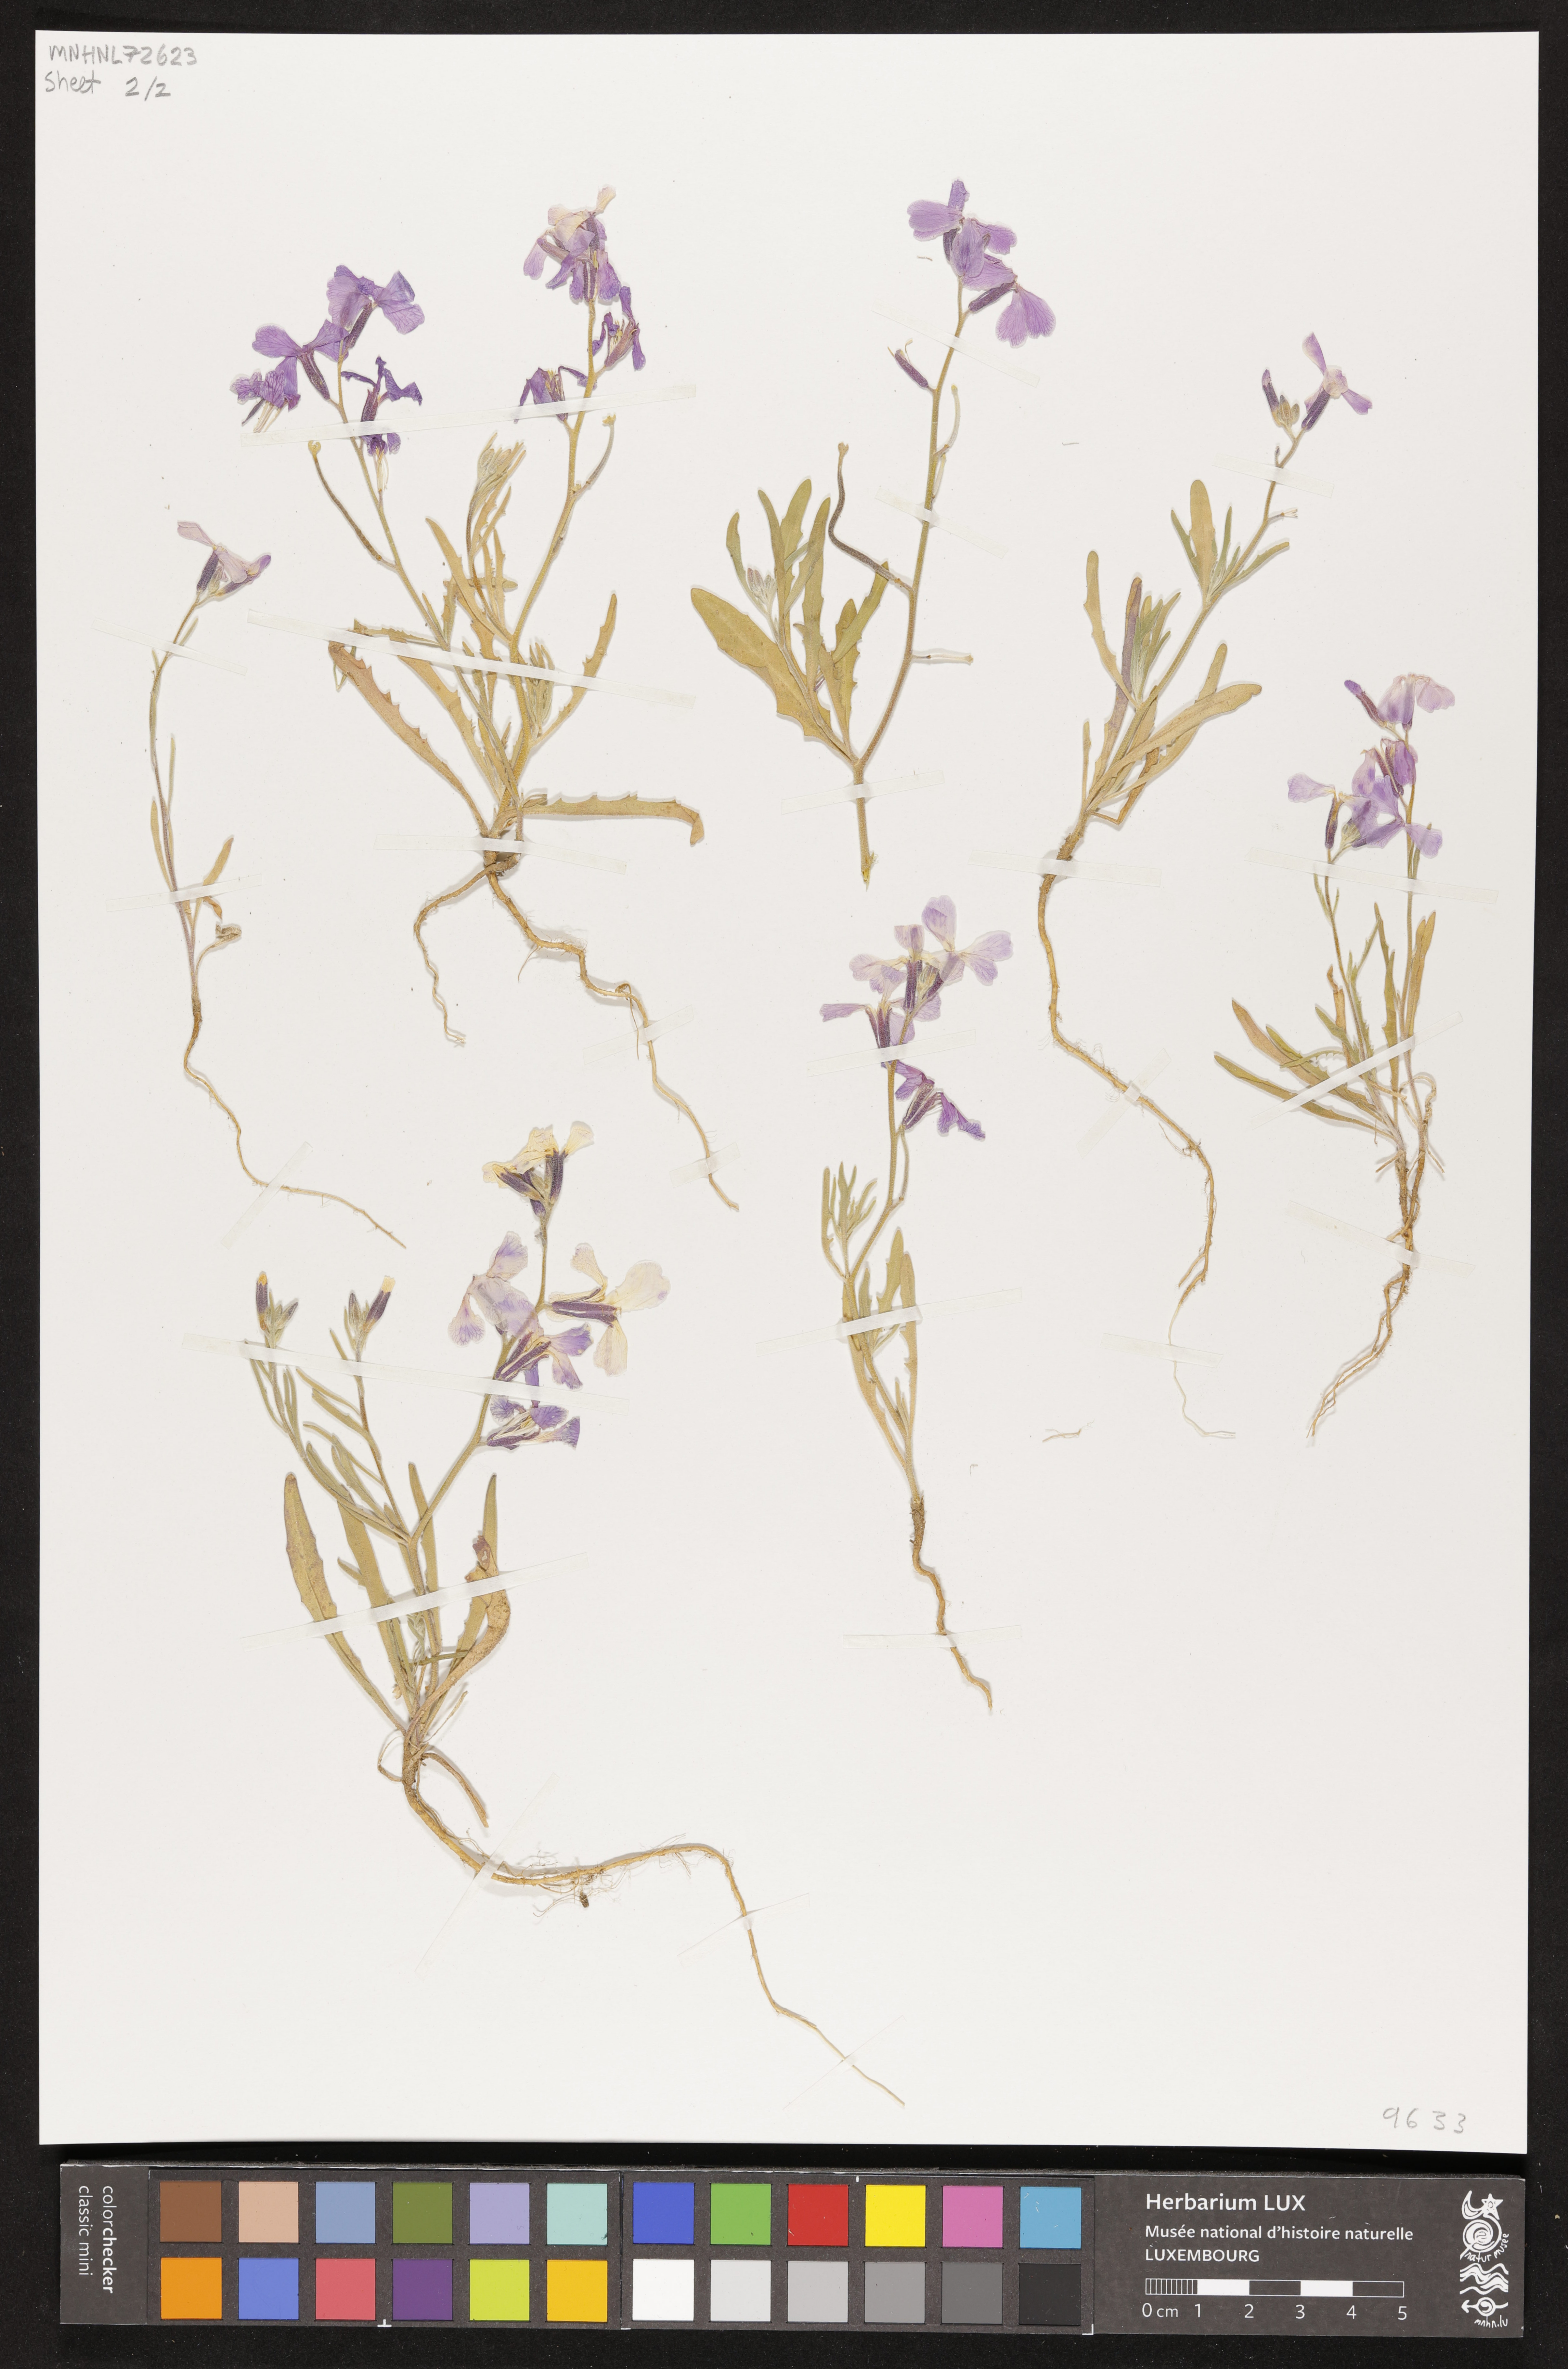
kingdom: Plantae
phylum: Tracheophyta
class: Magnoliopsida
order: Brassicales
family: Brassicaceae
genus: Matthiola
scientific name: Matthiola tricuspidata
